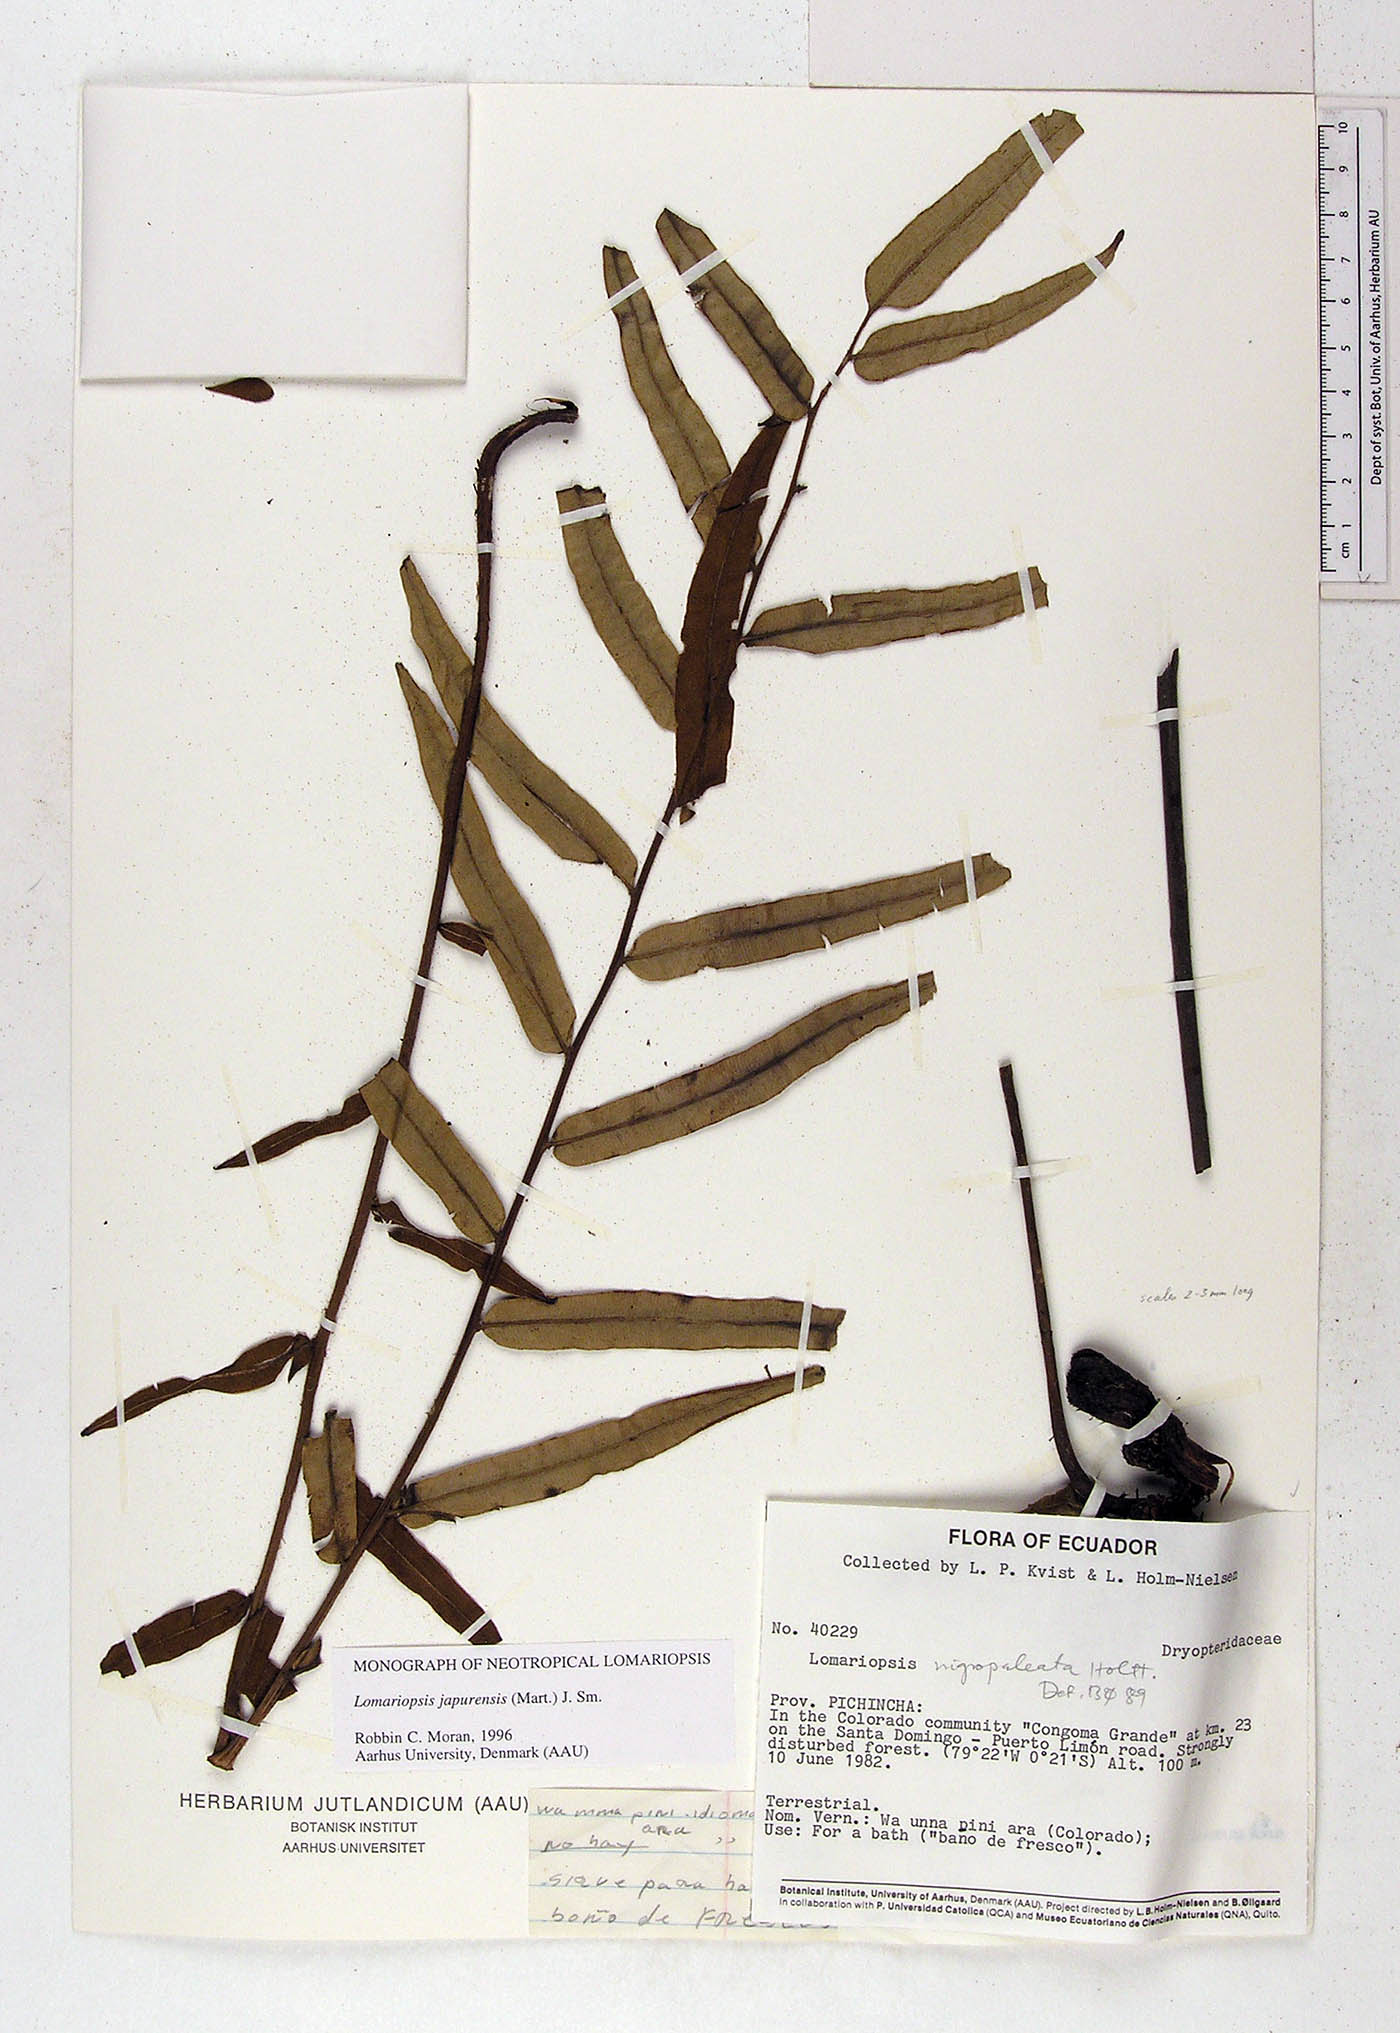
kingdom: Plantae
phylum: Tracheophyta
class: Polypodiopsida
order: Polypodiales
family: Lomariopsidaceae
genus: Lomariopsis
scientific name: Lomariopsis nigropaleata
